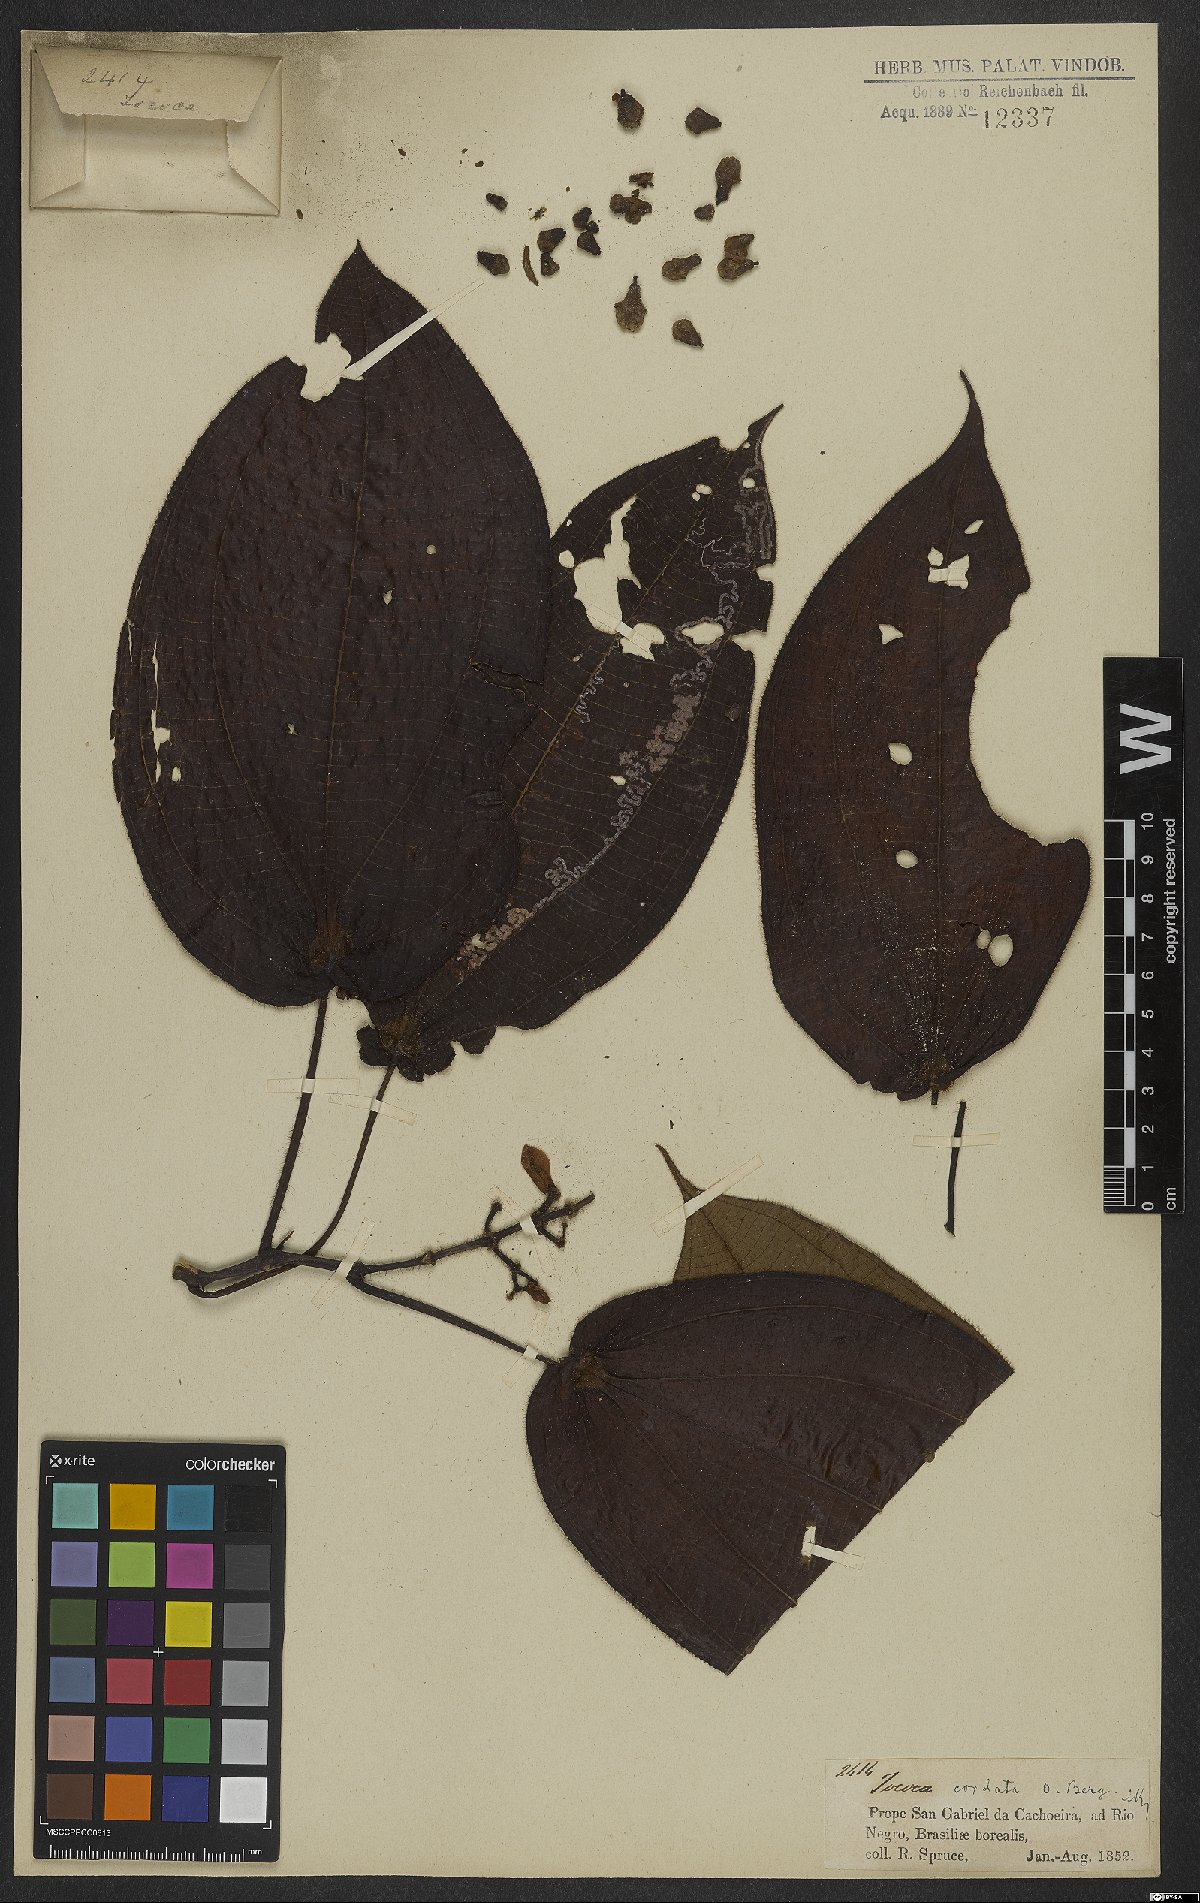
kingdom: Plantae
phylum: Tracheophyta
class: Magnoliopsida
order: Myrtales
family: Melastomataceae
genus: Miconia
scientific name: Miconia tococordata
